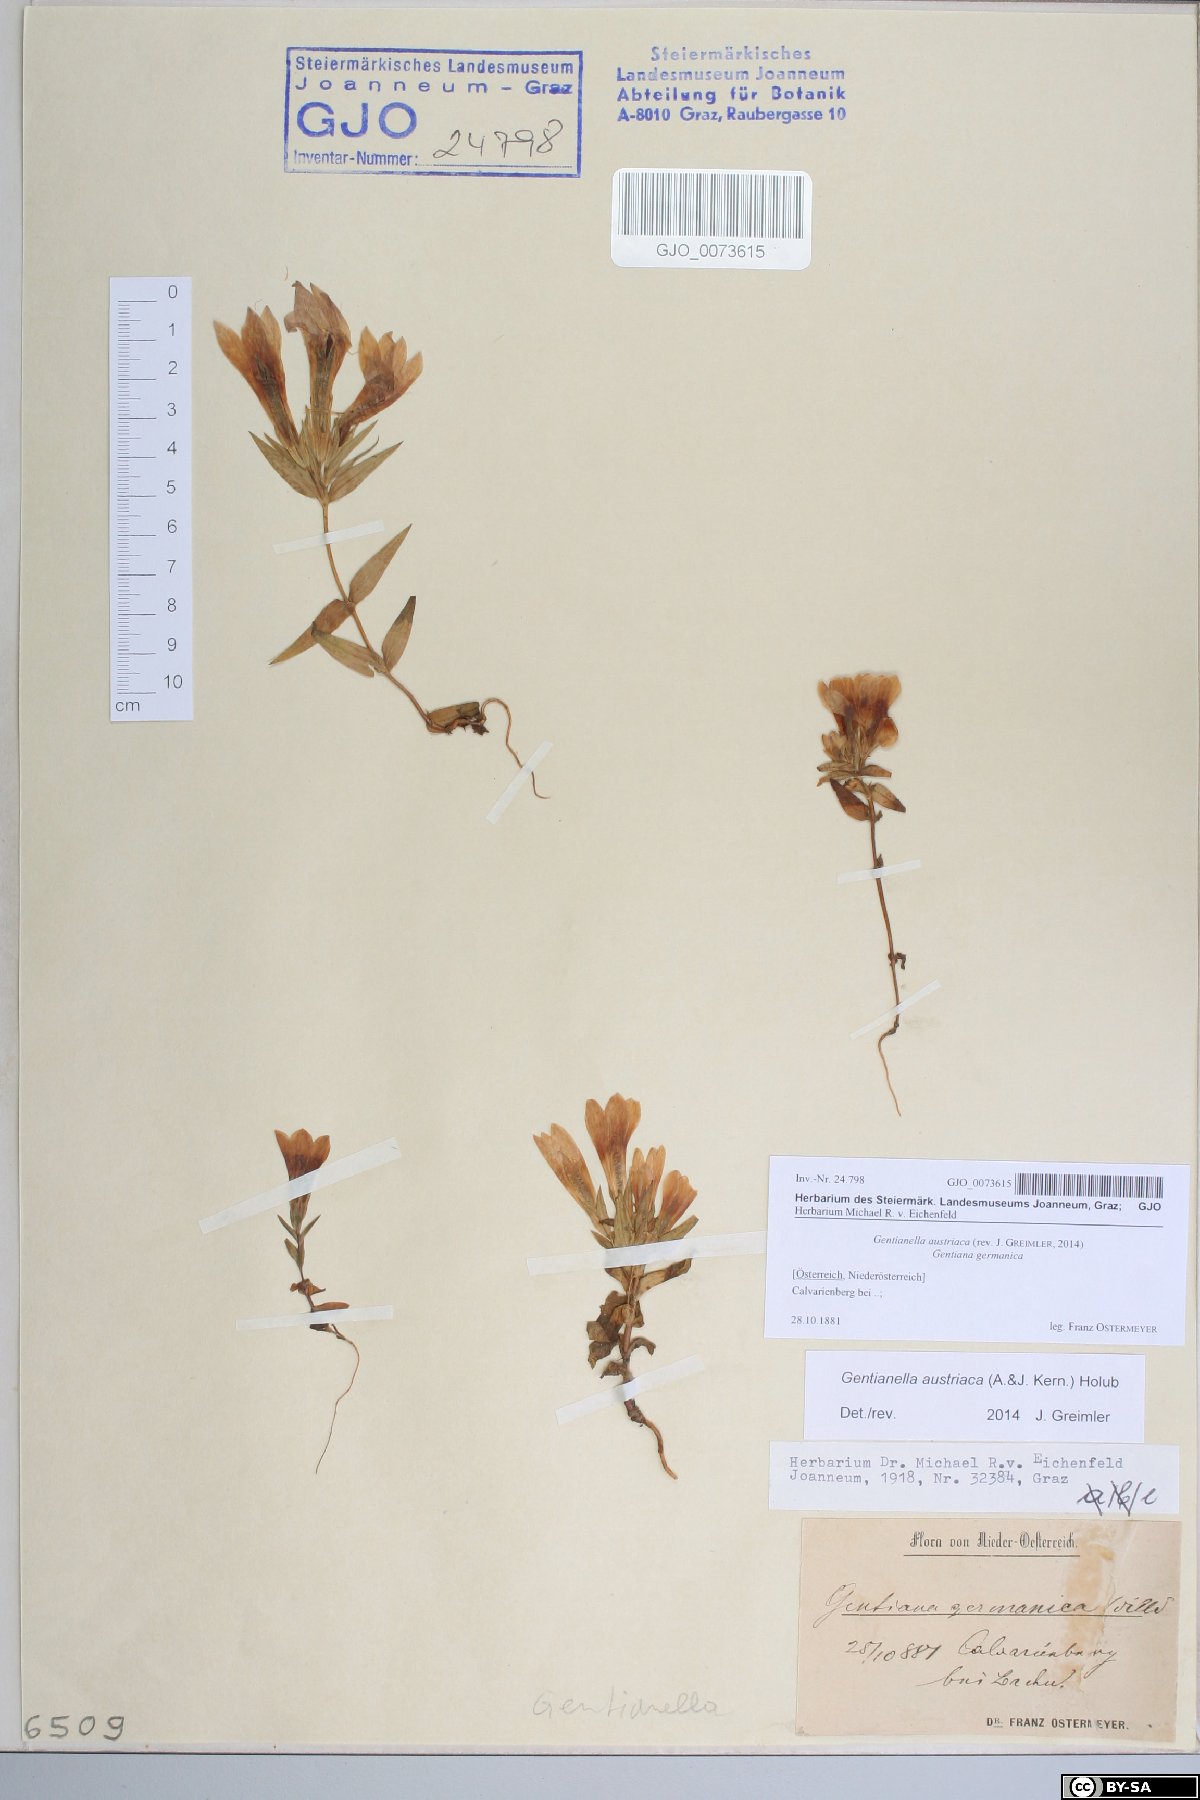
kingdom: Plantae
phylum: Tracheophyta
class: Magnoliopsida
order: Gentianales
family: Gentianaceae
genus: Gentianella
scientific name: Gentianella austriaca
